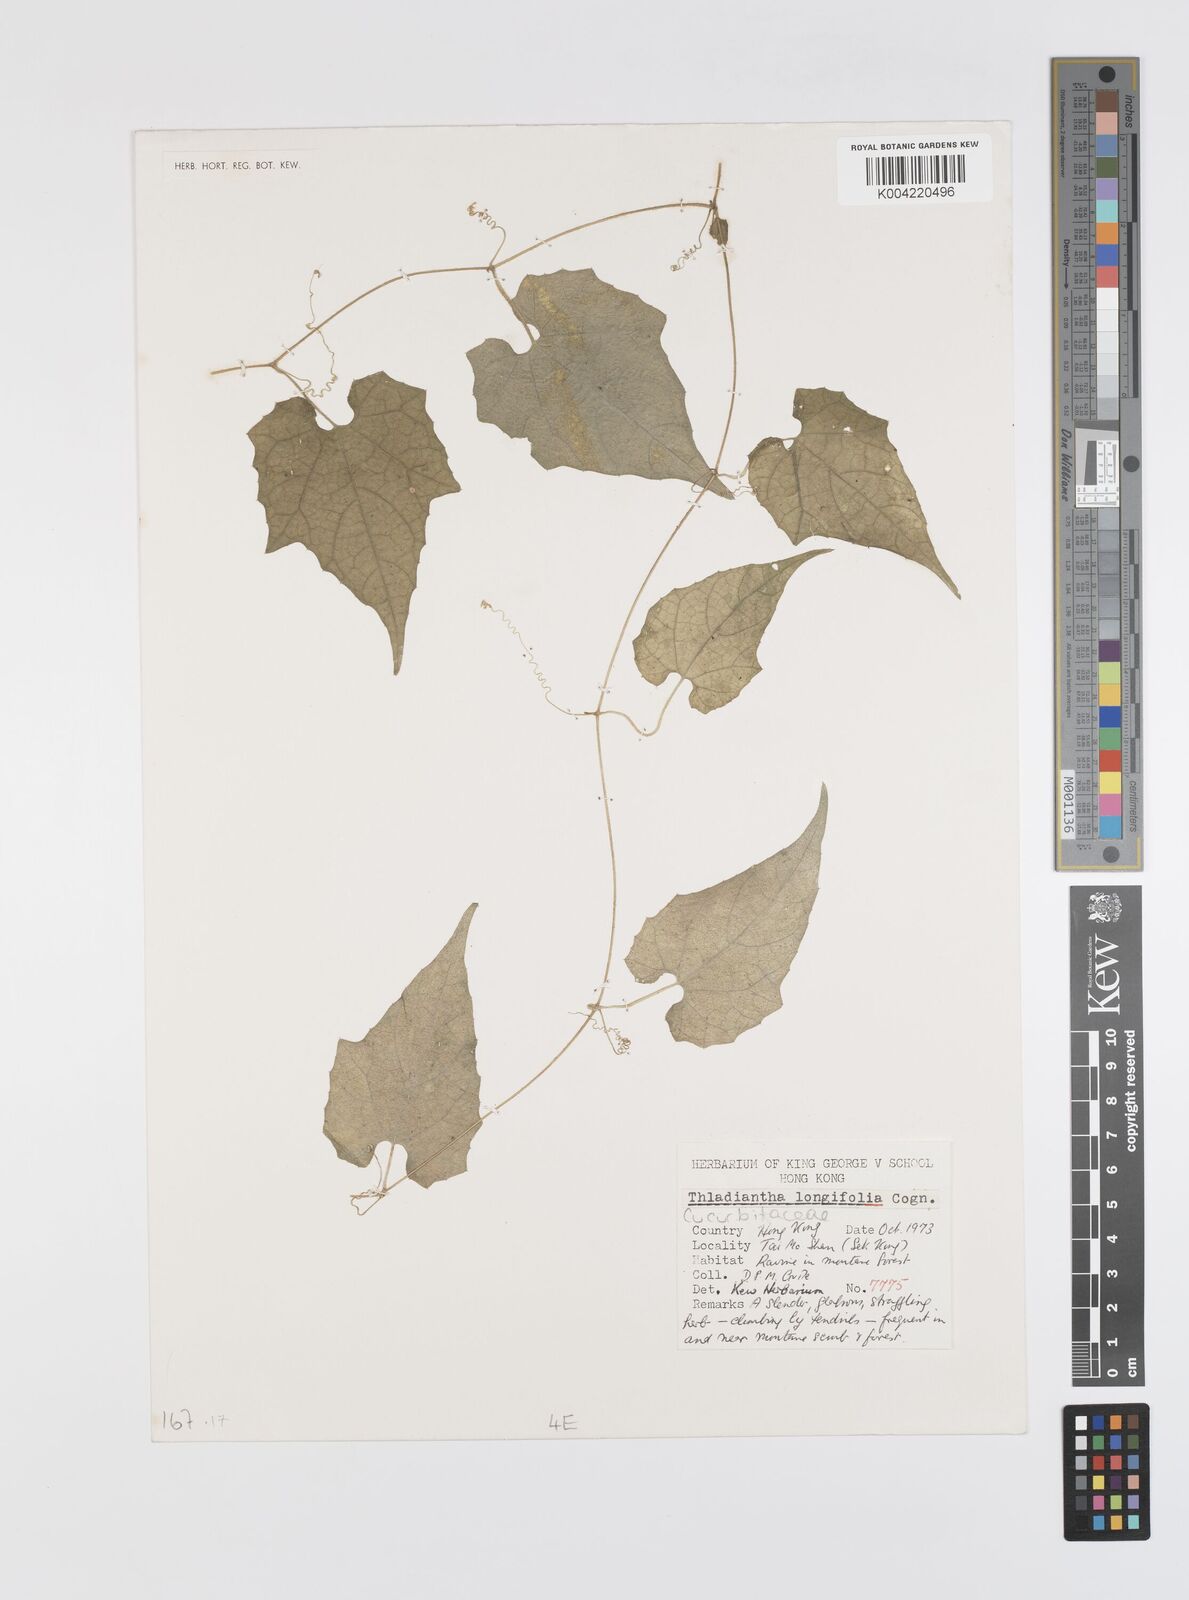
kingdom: Plantae
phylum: Tracheophyta
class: Magnoliopsida
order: Cucurbitales
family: Cucurbitaceae
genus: Thladiantha
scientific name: Thladiantha longifolia
